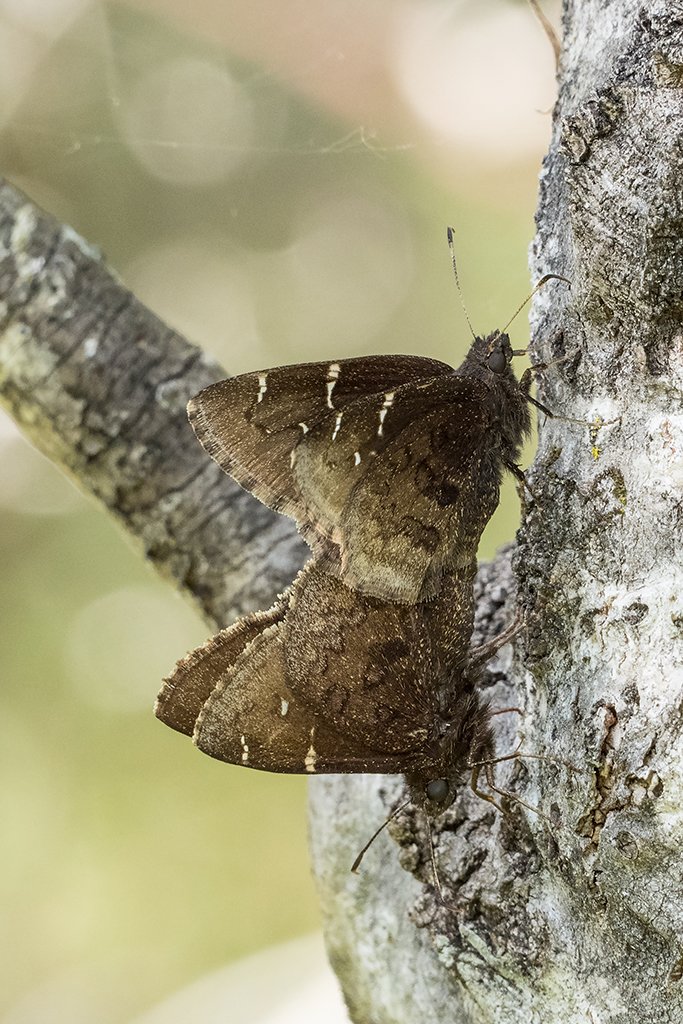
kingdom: Animalia
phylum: Arthropoda
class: Insecta
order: Lepidoptera
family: Hesperiidae
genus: Autochton
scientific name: Autochton
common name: Northern Cloudywing
